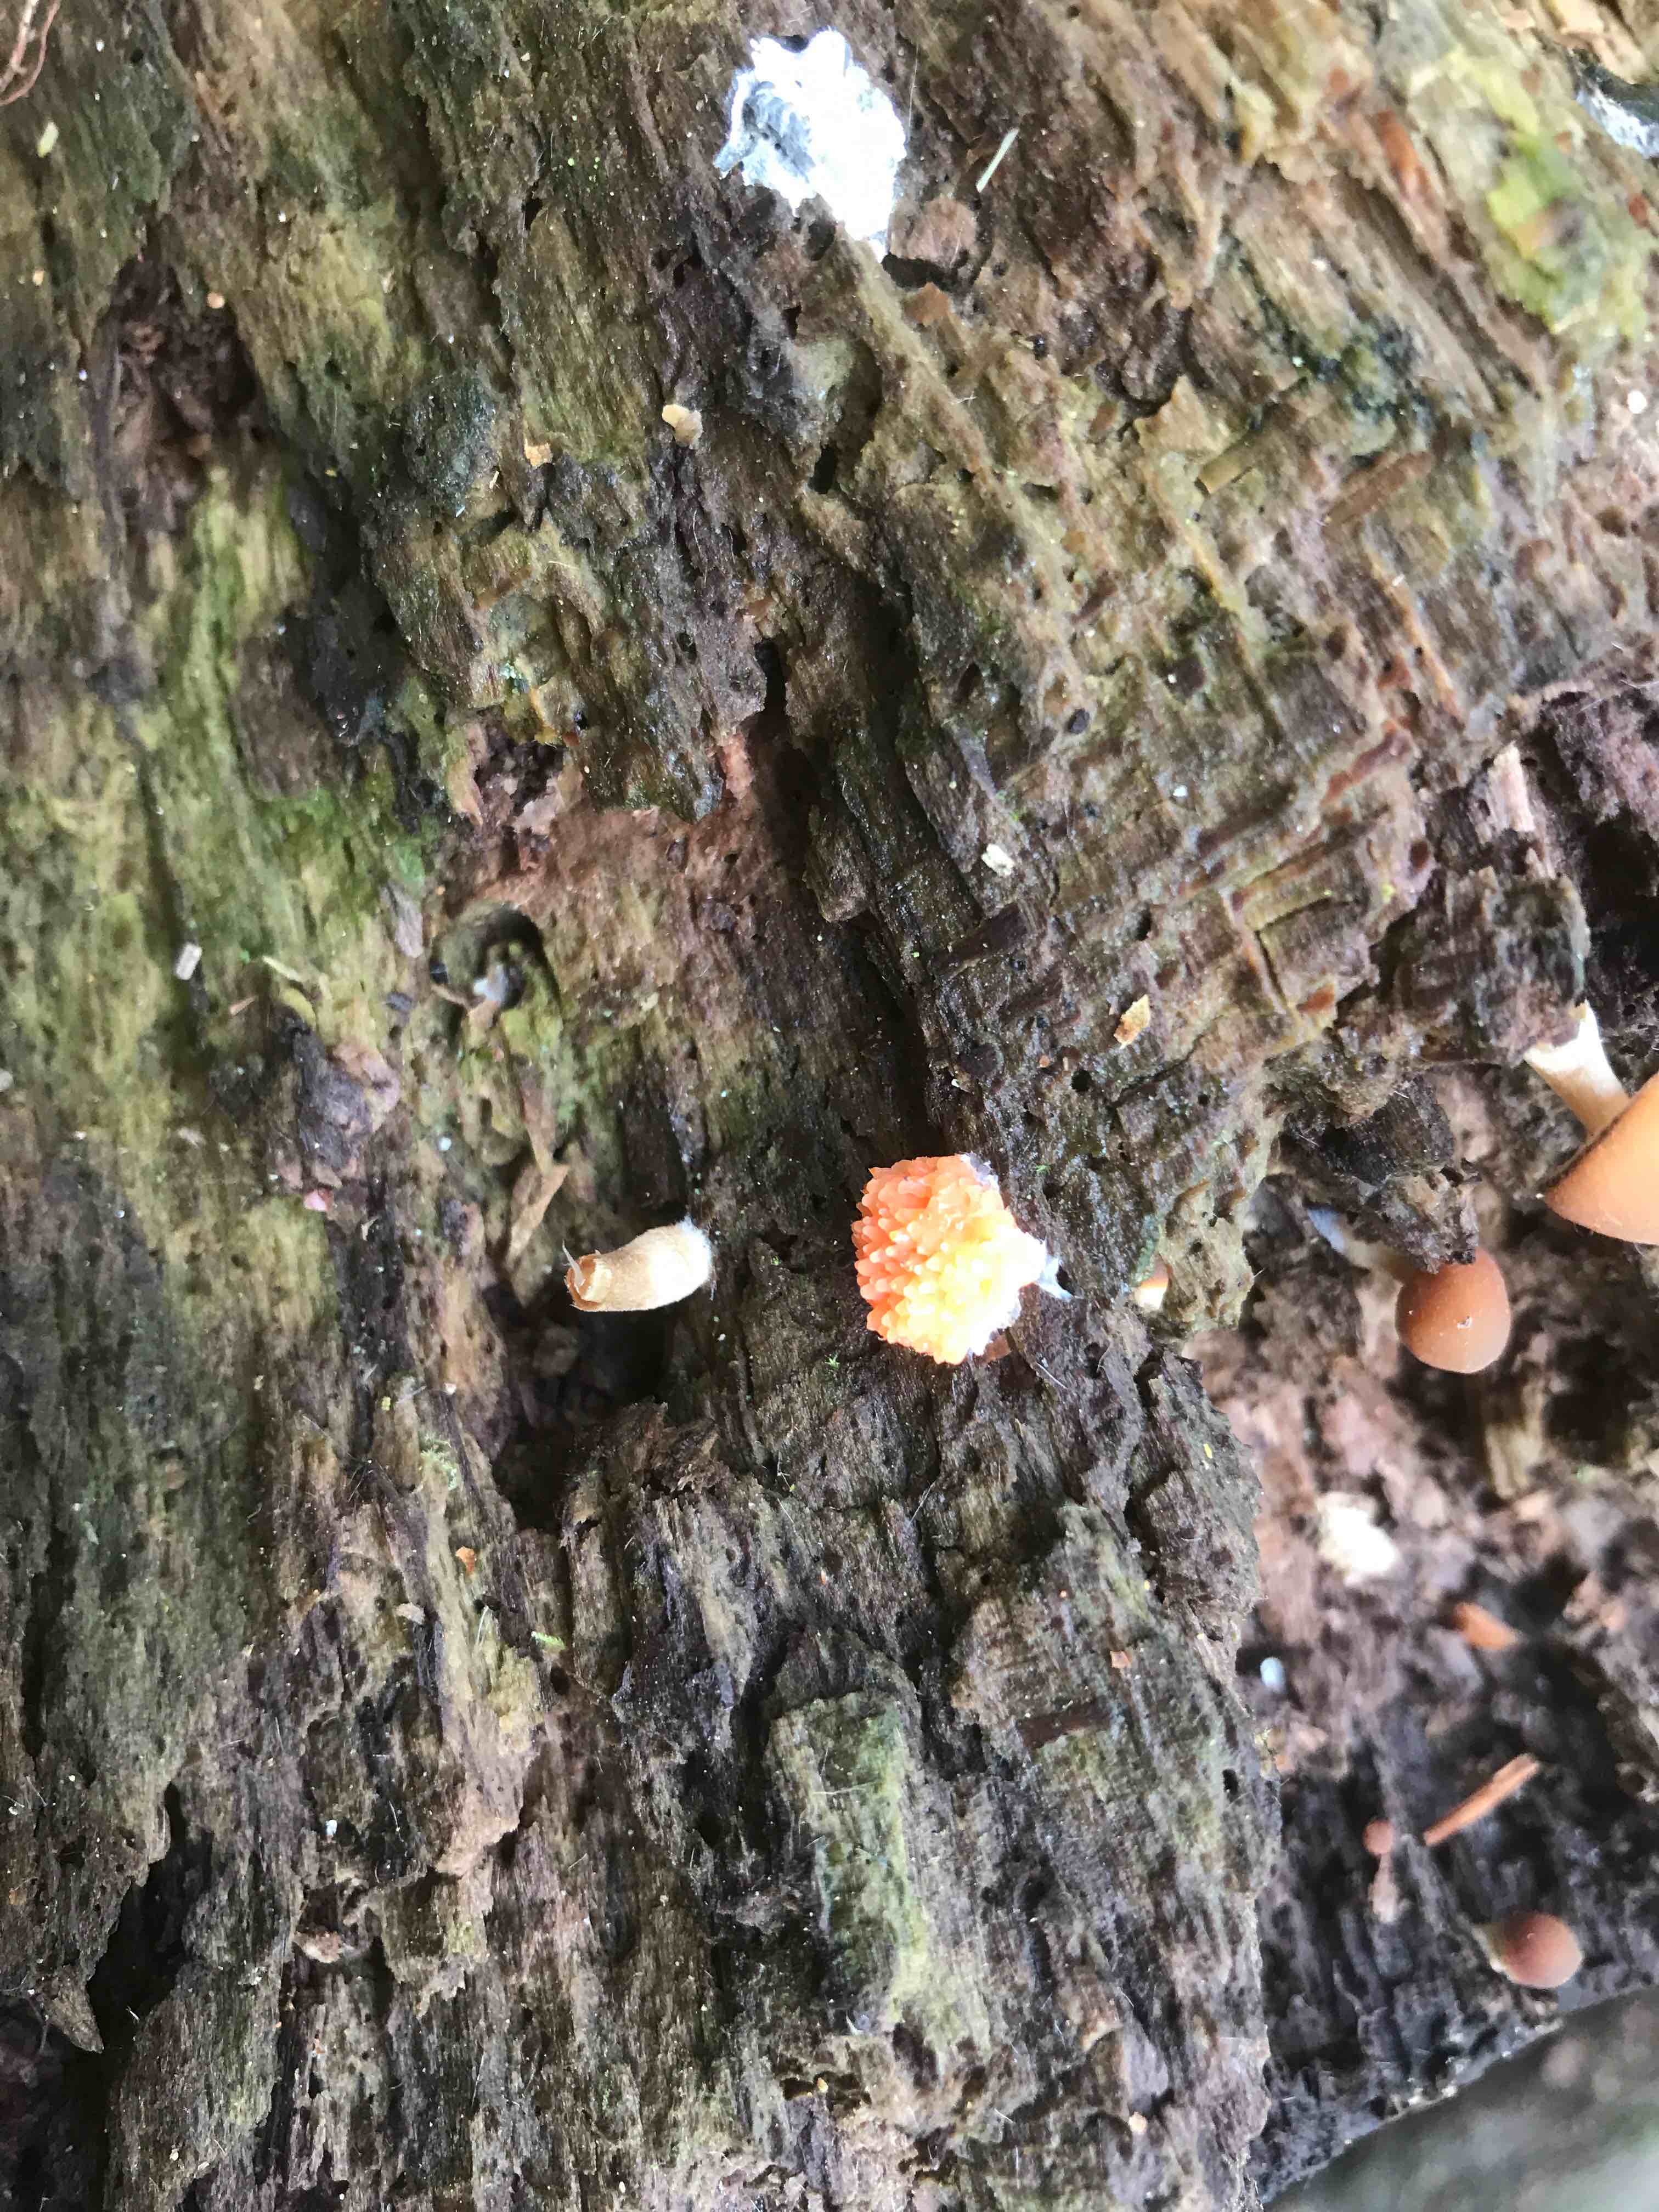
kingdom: Protozoa
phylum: Mycetozoa
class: Myxomycetes
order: Cribrariales
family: Tubiferaceae
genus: Tubifera
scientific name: Tubifera ferruginosa
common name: kanel-støvrør
